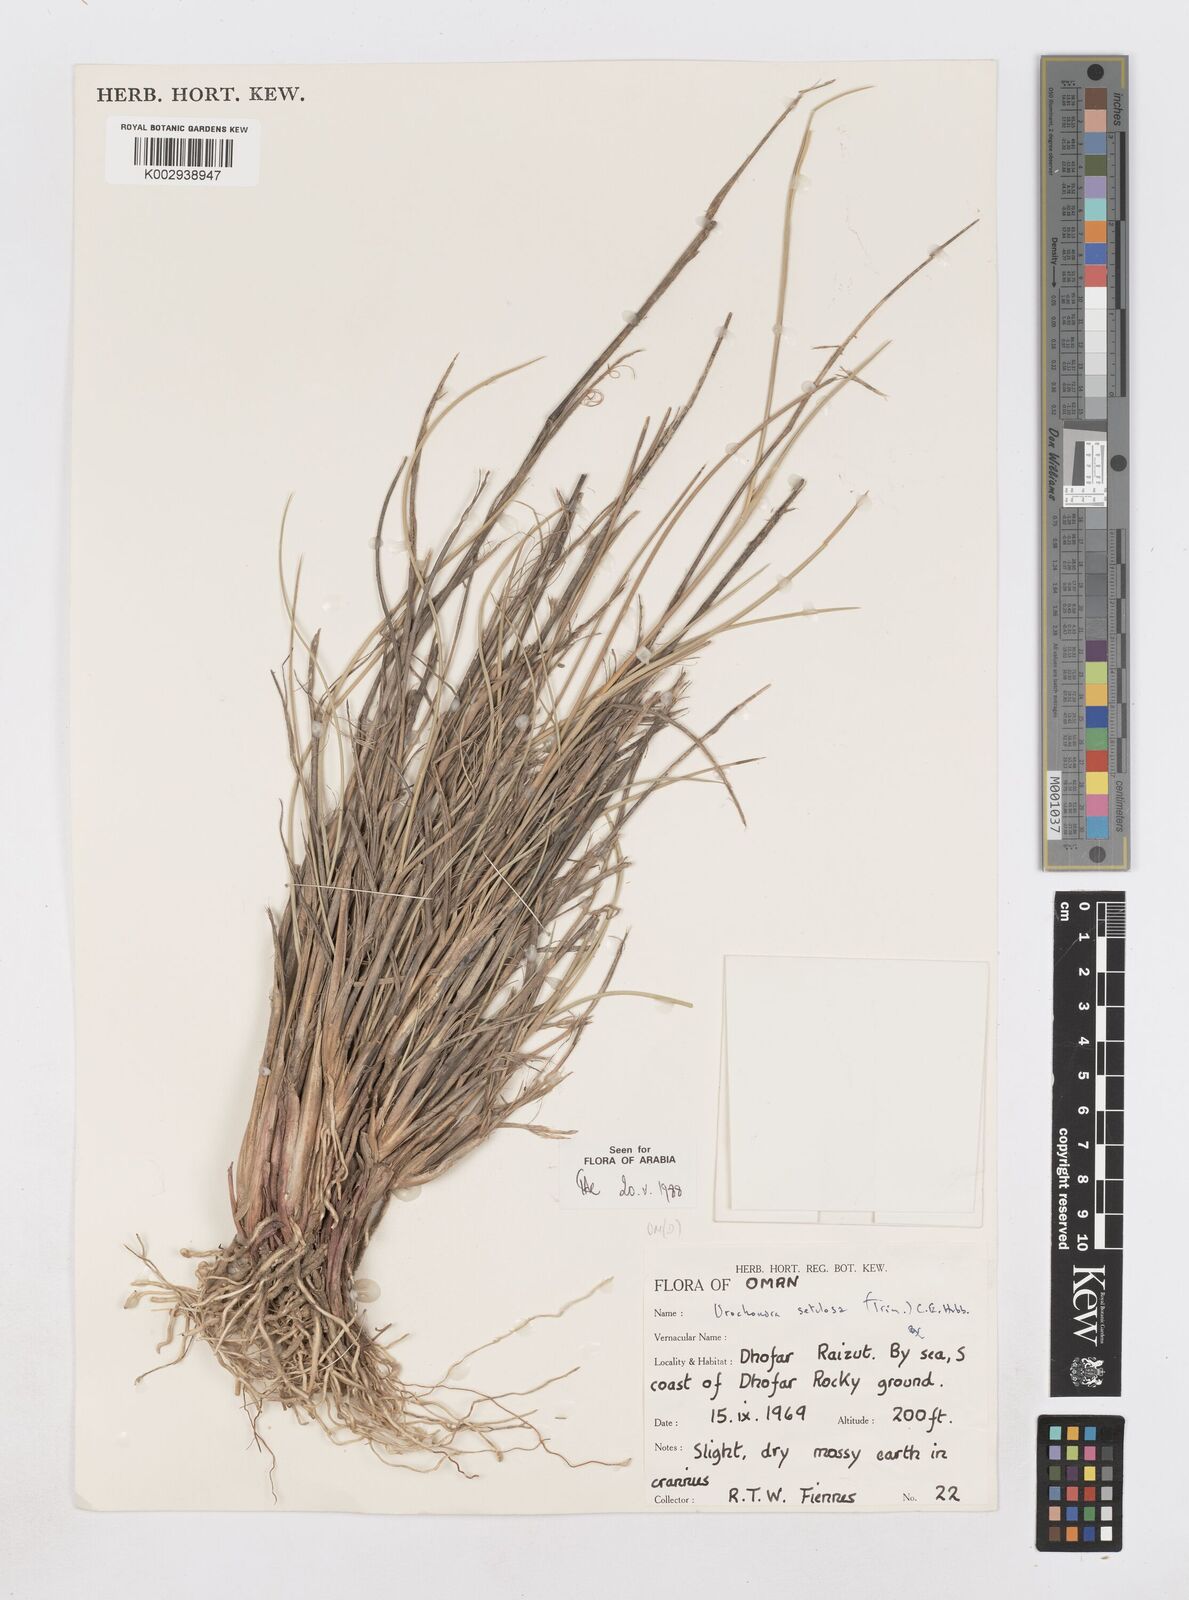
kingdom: Plantae
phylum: Tracheophyta
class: Liliopsida
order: Poales
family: Poaceae
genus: Urochondra
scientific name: Urochondra setulosa
